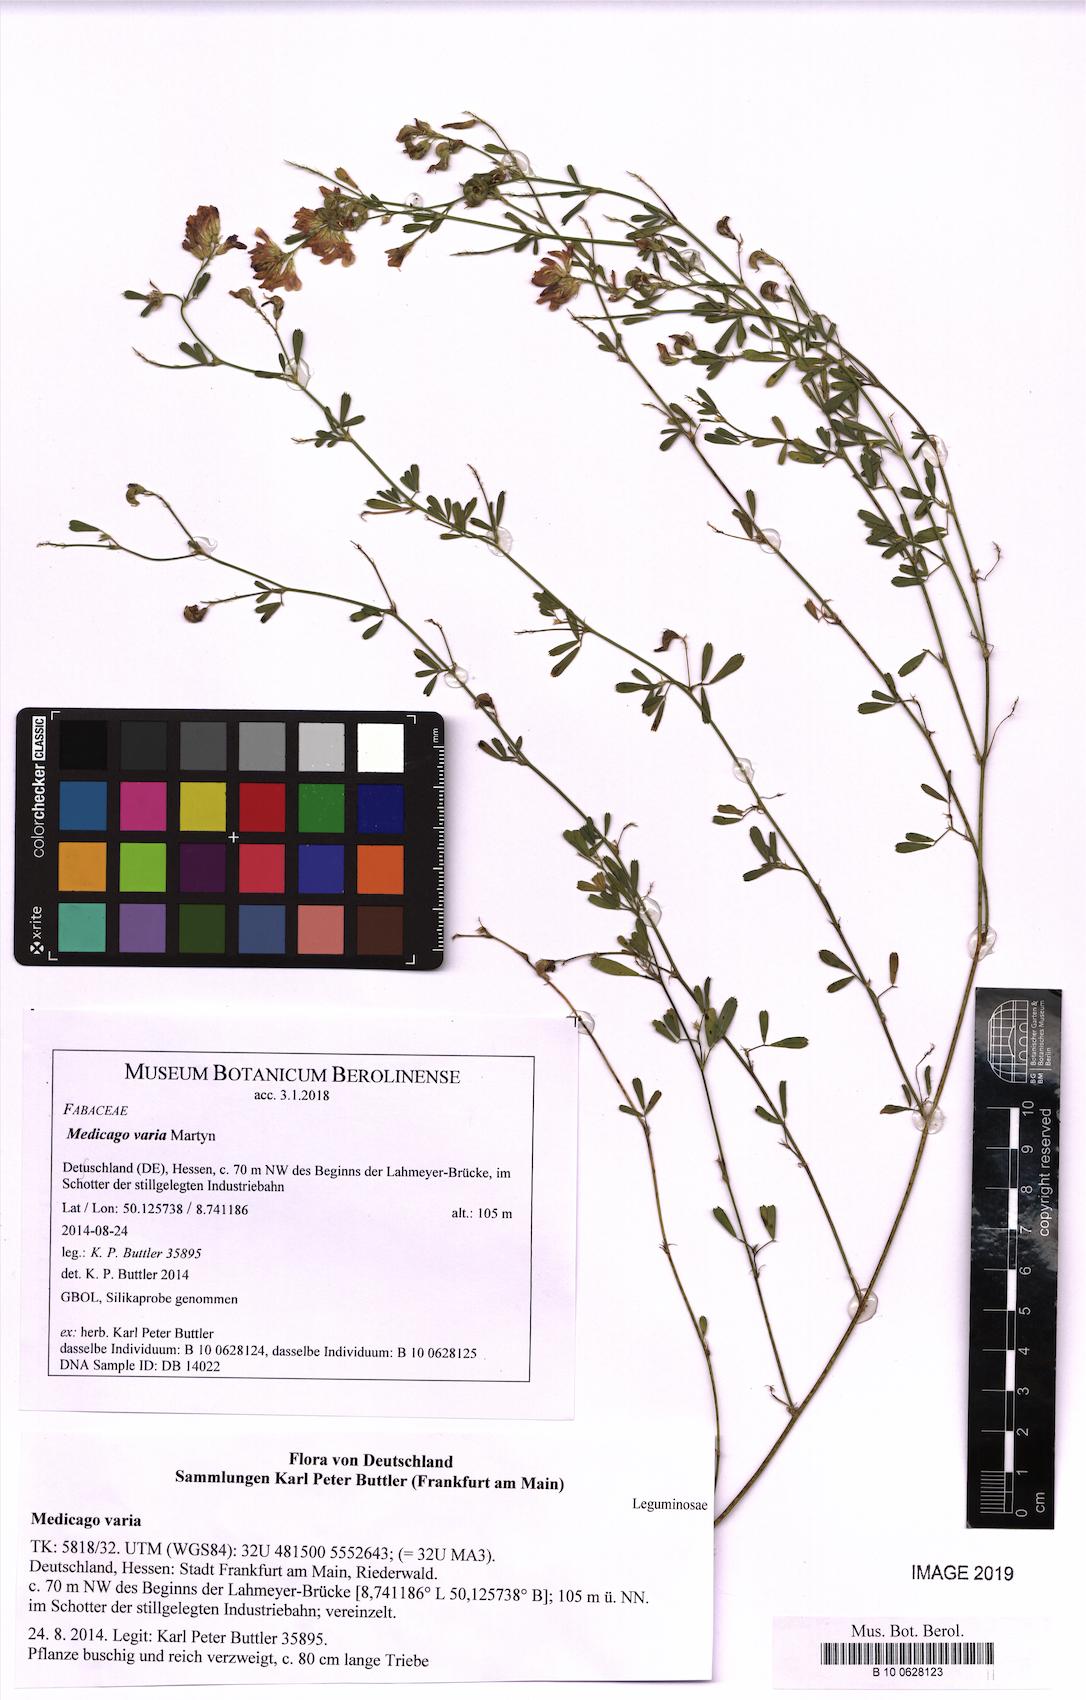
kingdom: Plantae
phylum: Tracheophyta
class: Magnoliopsida
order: Fabales
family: Fabaceae
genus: Medicago
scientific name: Medicago varia
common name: Sand lucerne
